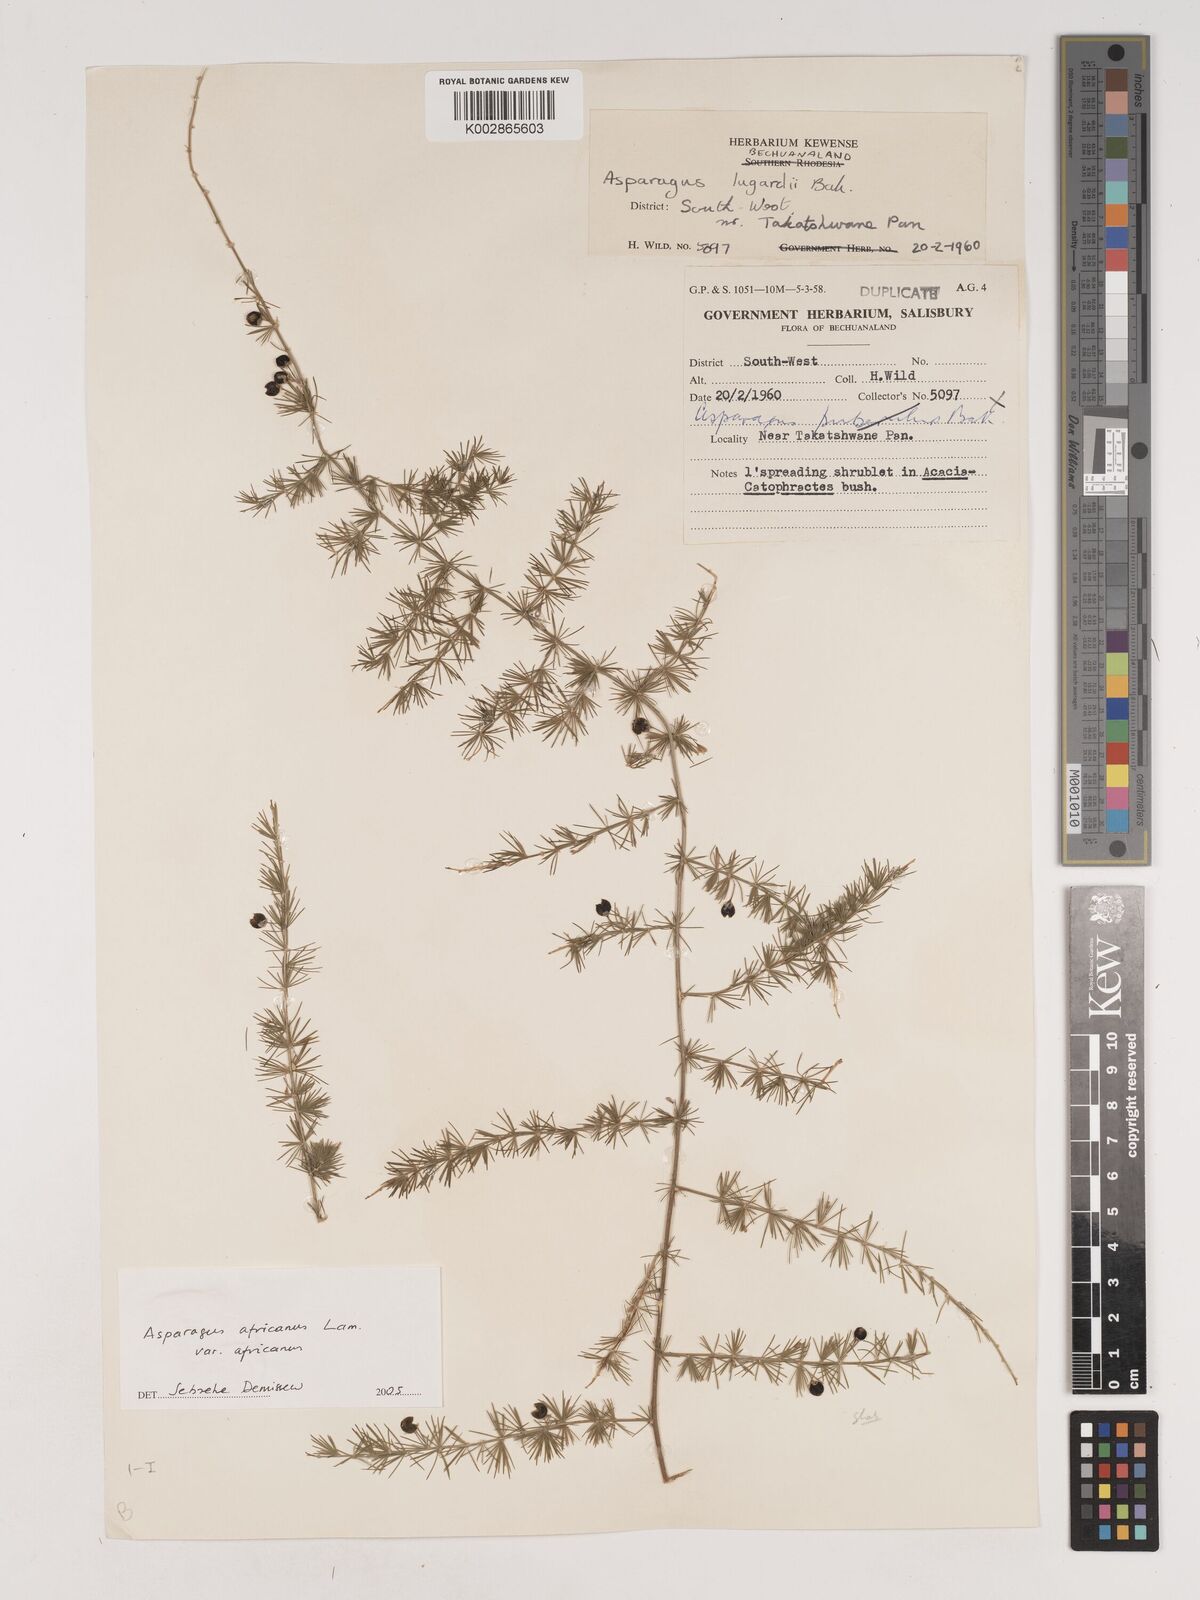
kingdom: Plantae
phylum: Tracheophyta
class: Liliopsida
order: Asparagales
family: Asparagaceae
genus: Asparagus
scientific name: Asparagus africanus
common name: Asparagus-fern
